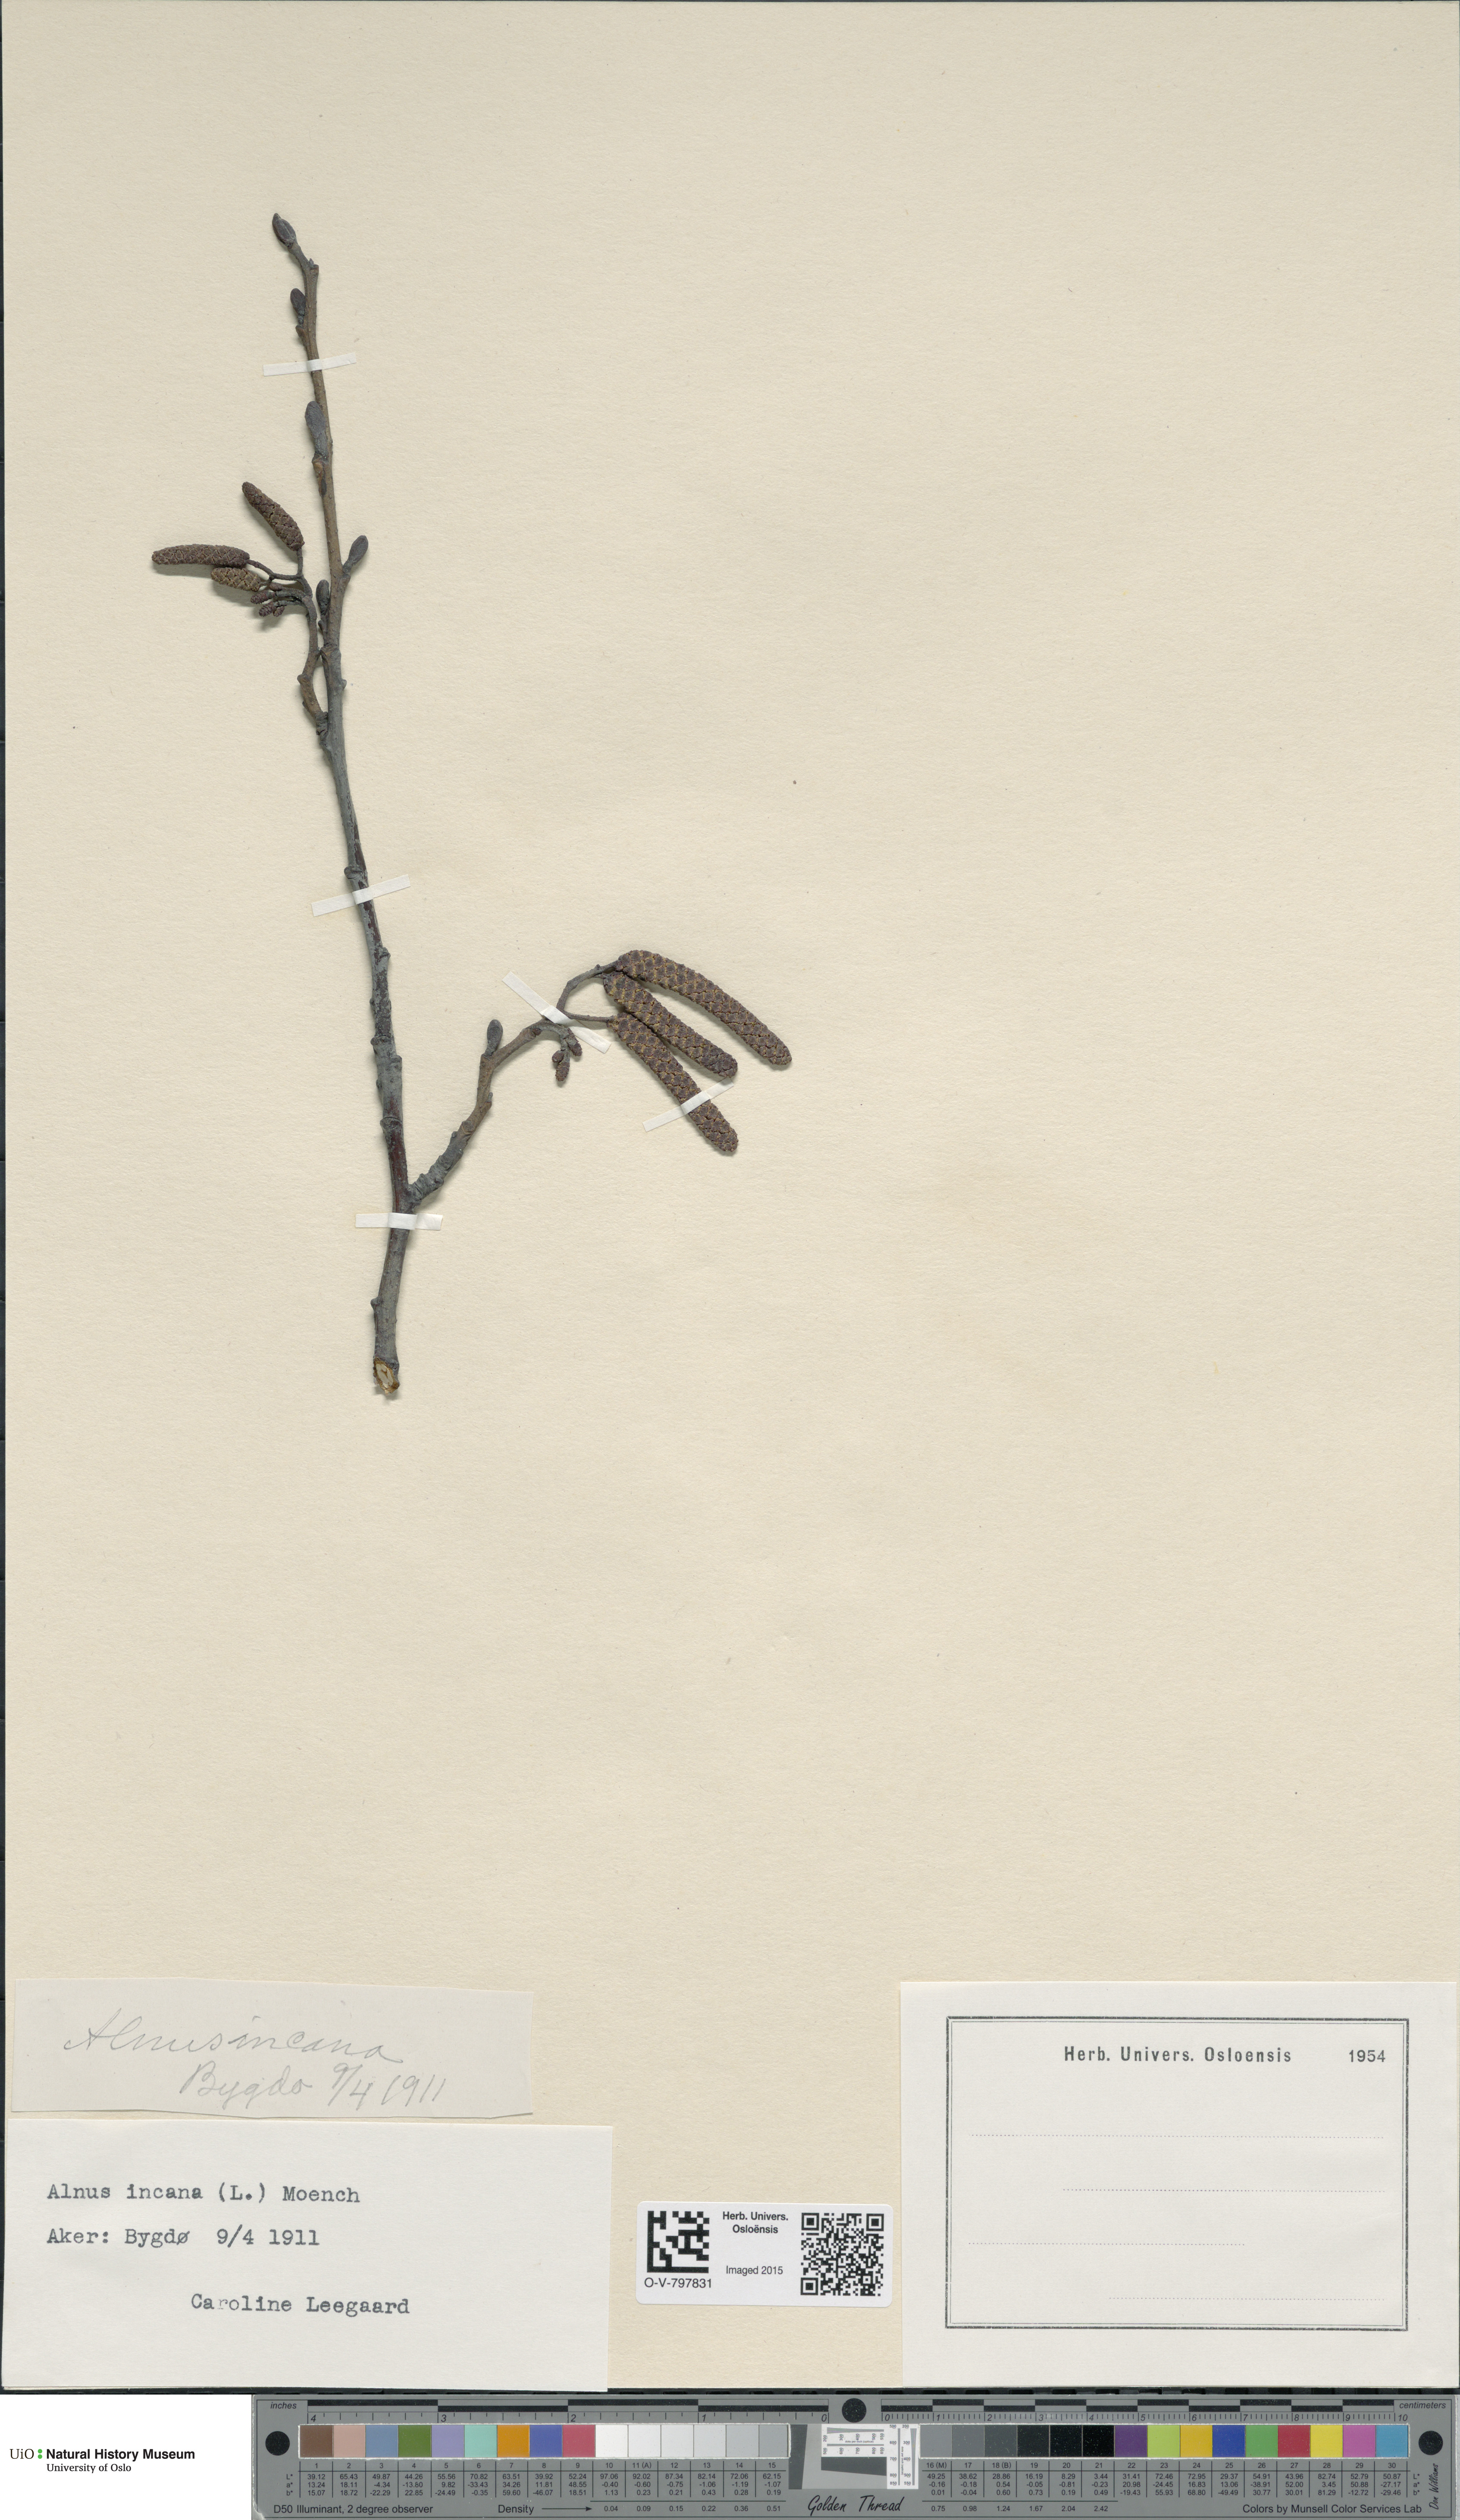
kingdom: Plantae
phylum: Tracheophyta
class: Magnoliopsida
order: Fagales
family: Betulaceae
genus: Alnus
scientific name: Alnus incana
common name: Grey alder
